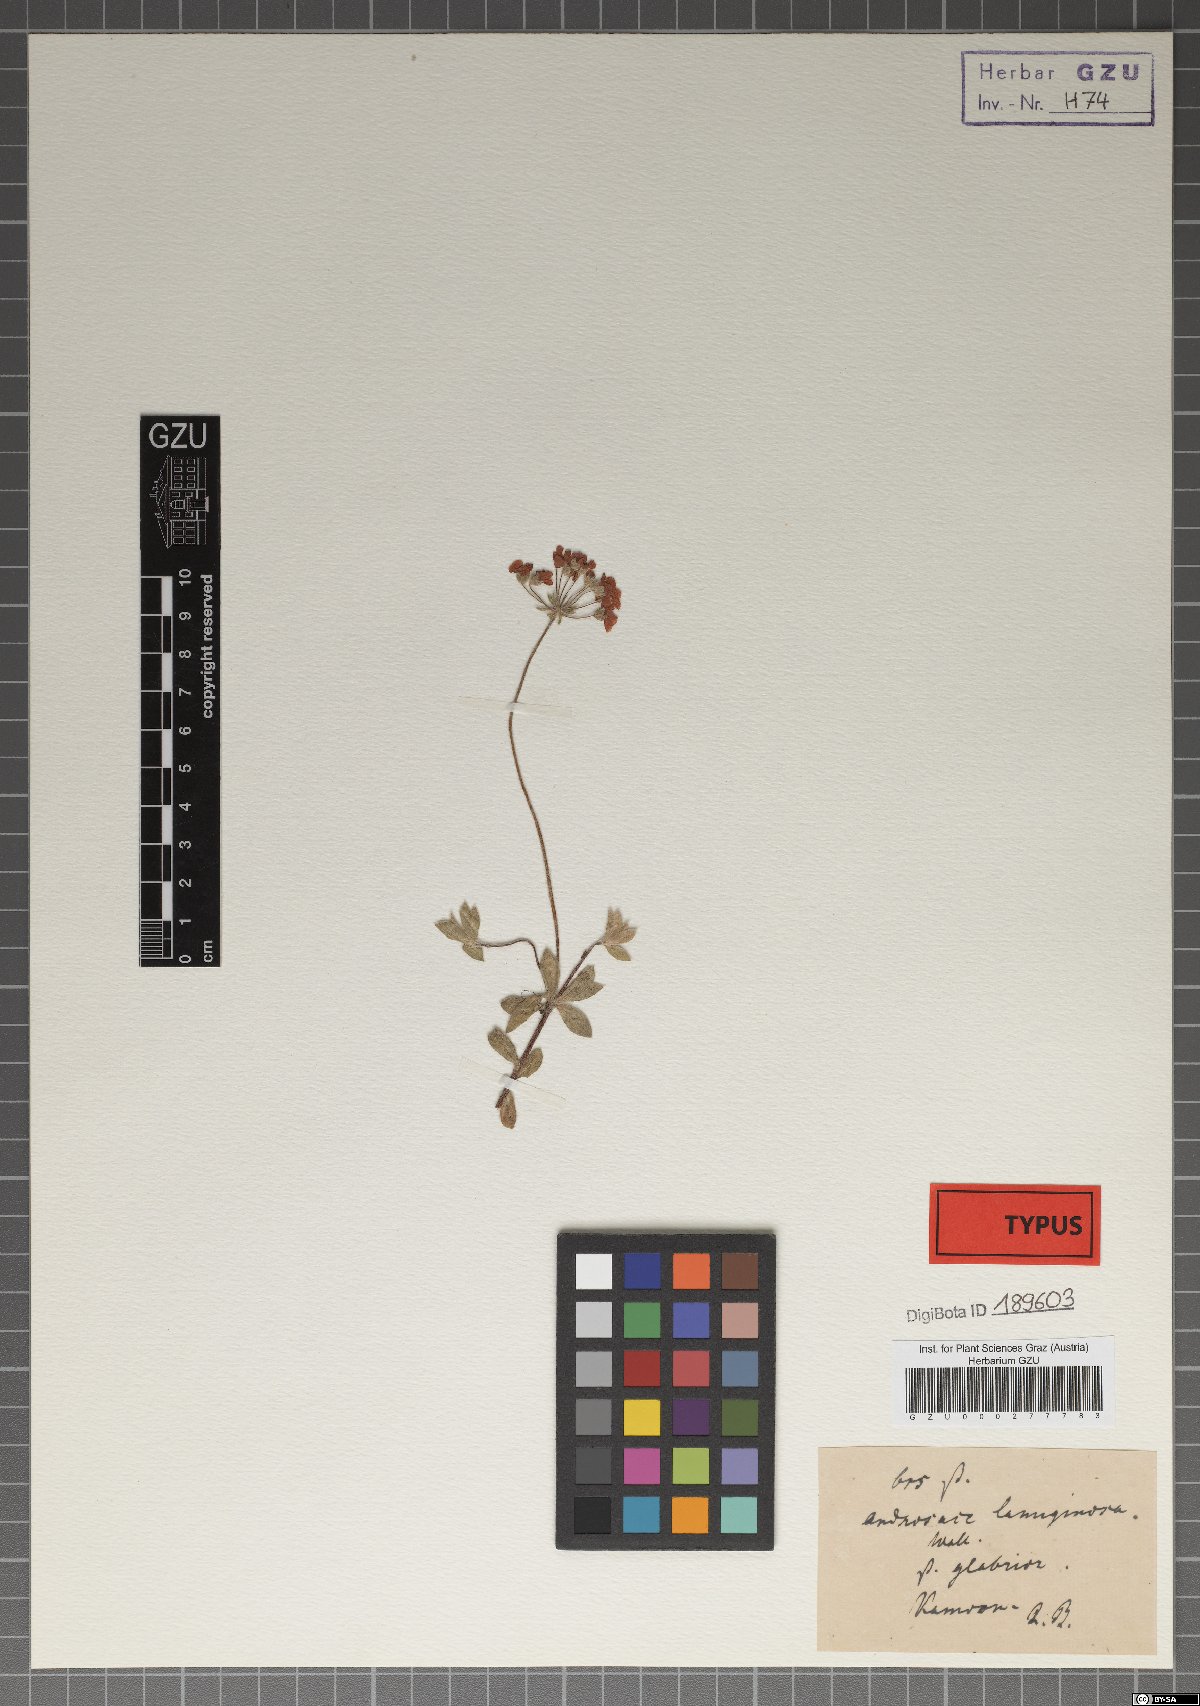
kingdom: Plantae
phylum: Tracheophyta
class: Magnoliopsida
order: Ericales
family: Primulaceae
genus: Androsace
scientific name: Androsace lanuginosa
